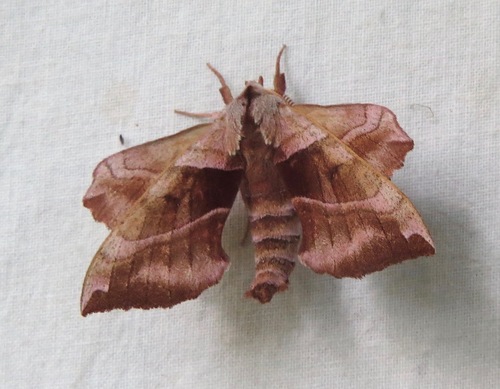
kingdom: Animalia
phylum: Arthropoda
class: Insecta
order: Lepidoptera
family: Sphingidae
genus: Amorpha
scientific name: Amorpha juglandis
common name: Walnut sphinx
